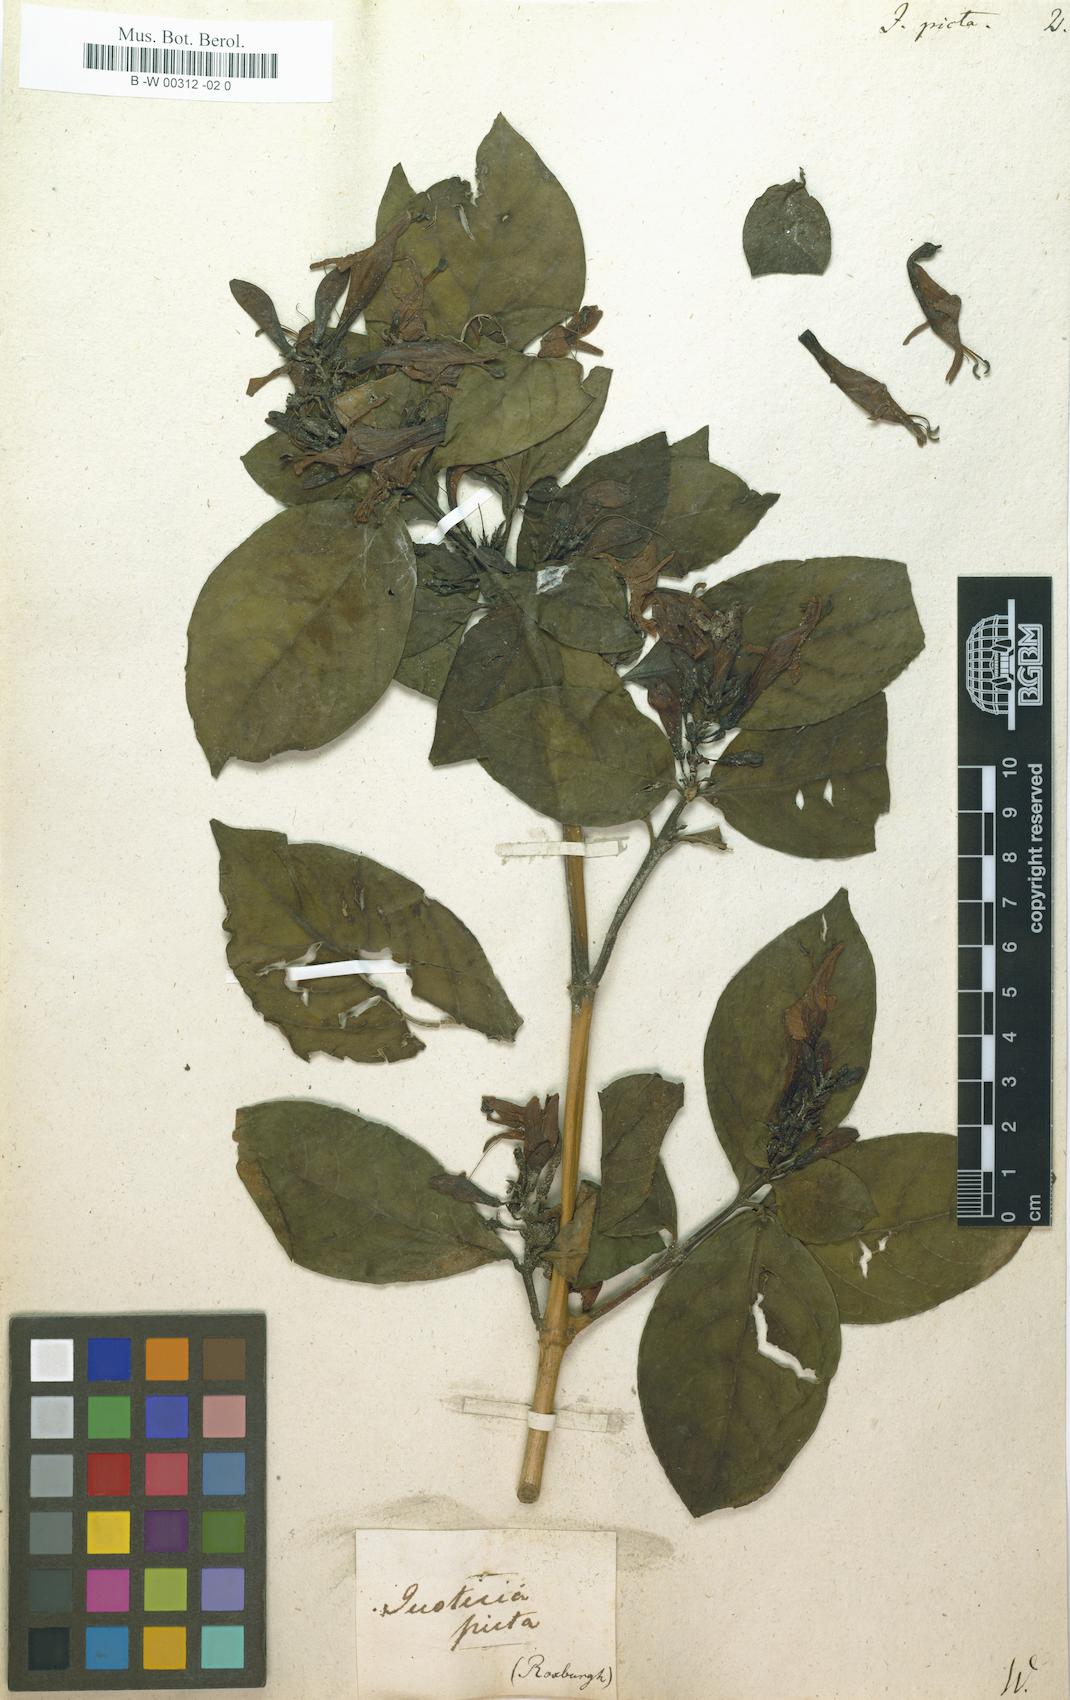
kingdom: Plantae
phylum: Tracheophyta
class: Magnoliopsida
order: Lamiales
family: Acanthaceae
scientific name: Acanthaceae
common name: Acanthaceae
